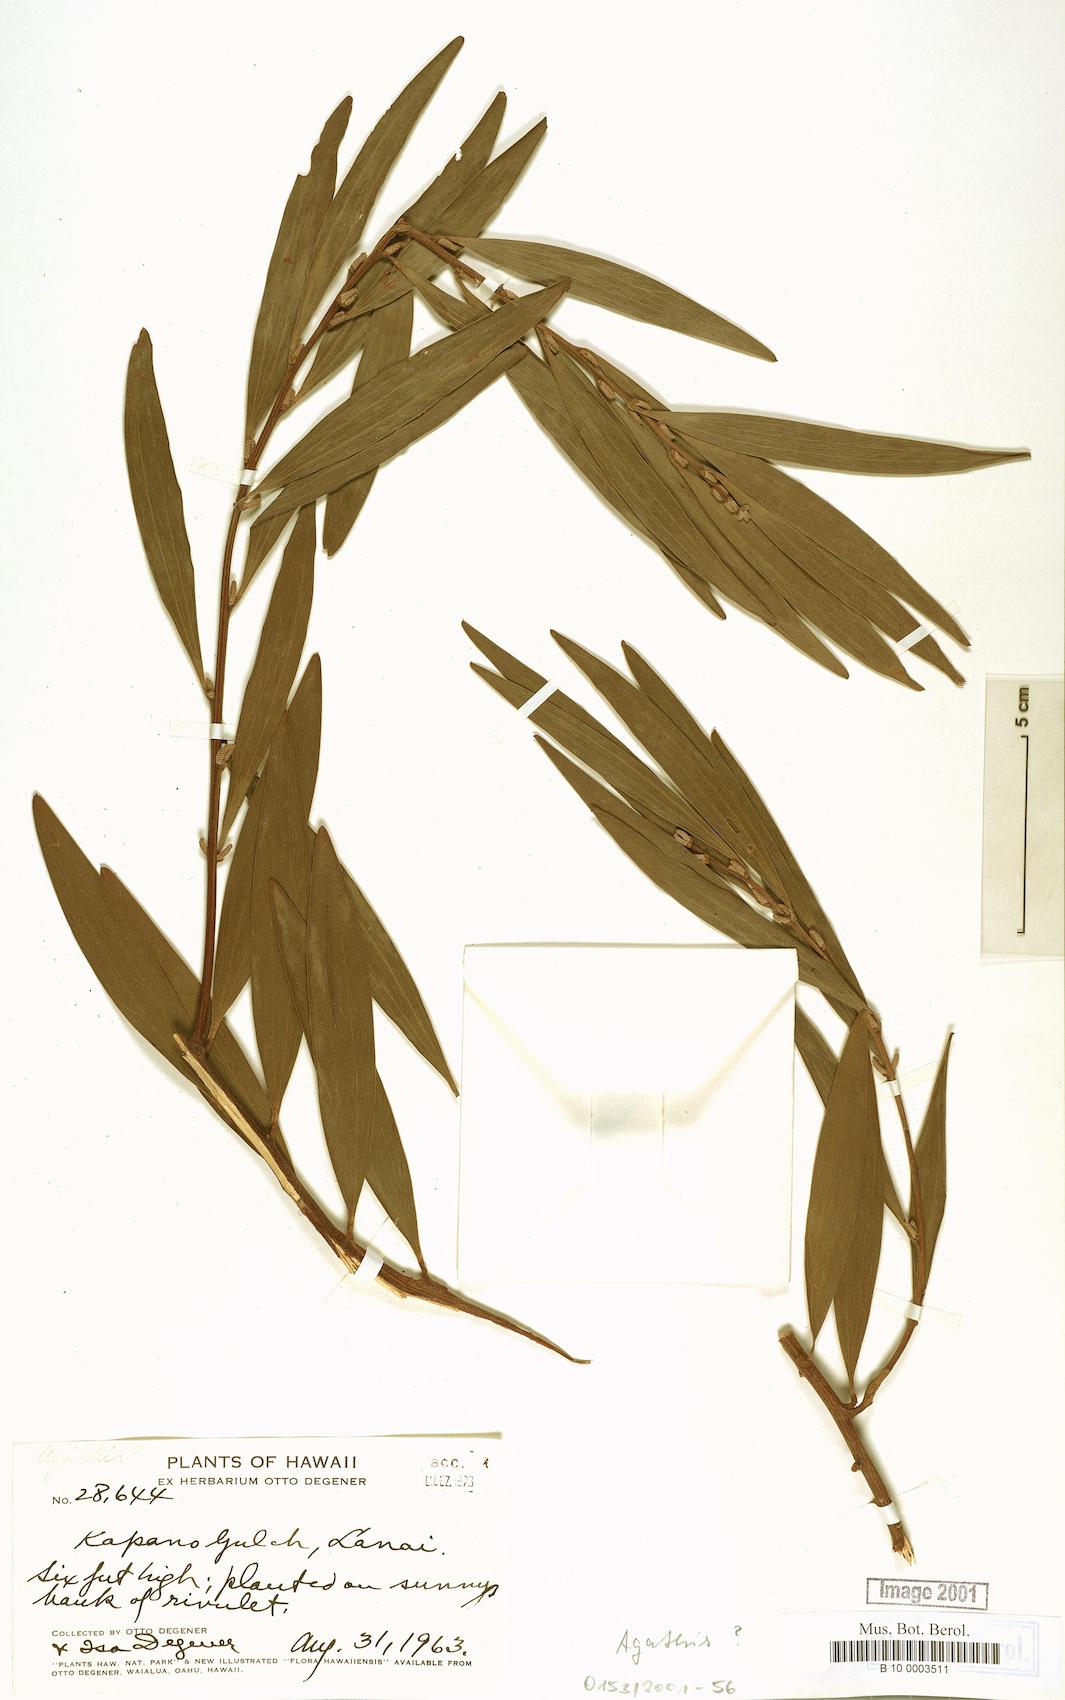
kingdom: Plantae
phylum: Tracheophyta
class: Pinopsida
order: Pinales
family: Araucariaceae
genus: Agathis
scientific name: Agathis
